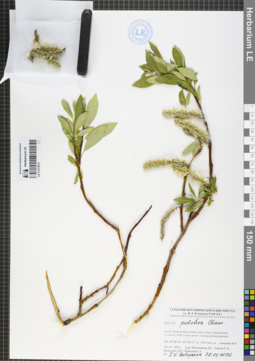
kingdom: Plantae
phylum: Tracheophyta
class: Magnoliopsida
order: Malpighiales
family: Salicaceae
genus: Salix
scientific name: Salix pulchra
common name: Diamond-leaved willow
